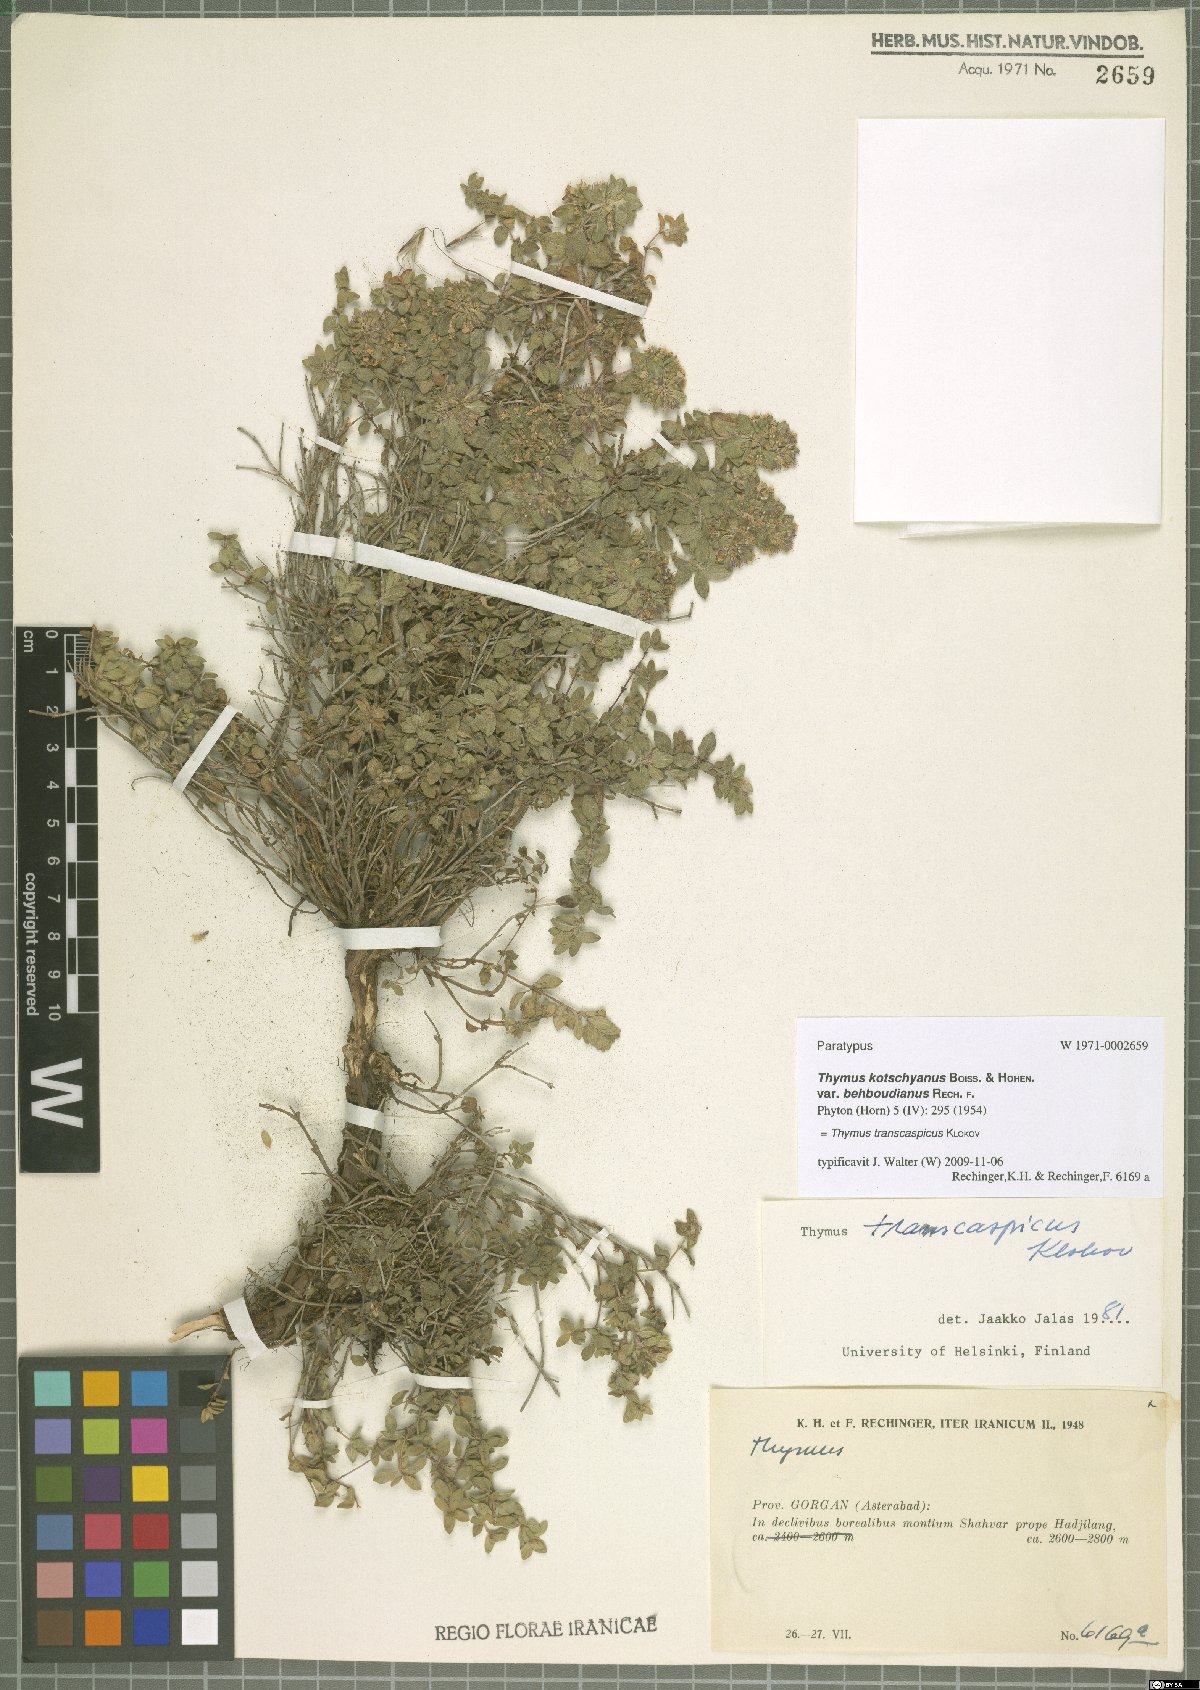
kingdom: Plantae
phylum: Tracheophyta
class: Magnoliopsida
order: Lamiales
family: Lamiaceae
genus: Thymus
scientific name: Thymus transcaspicus
